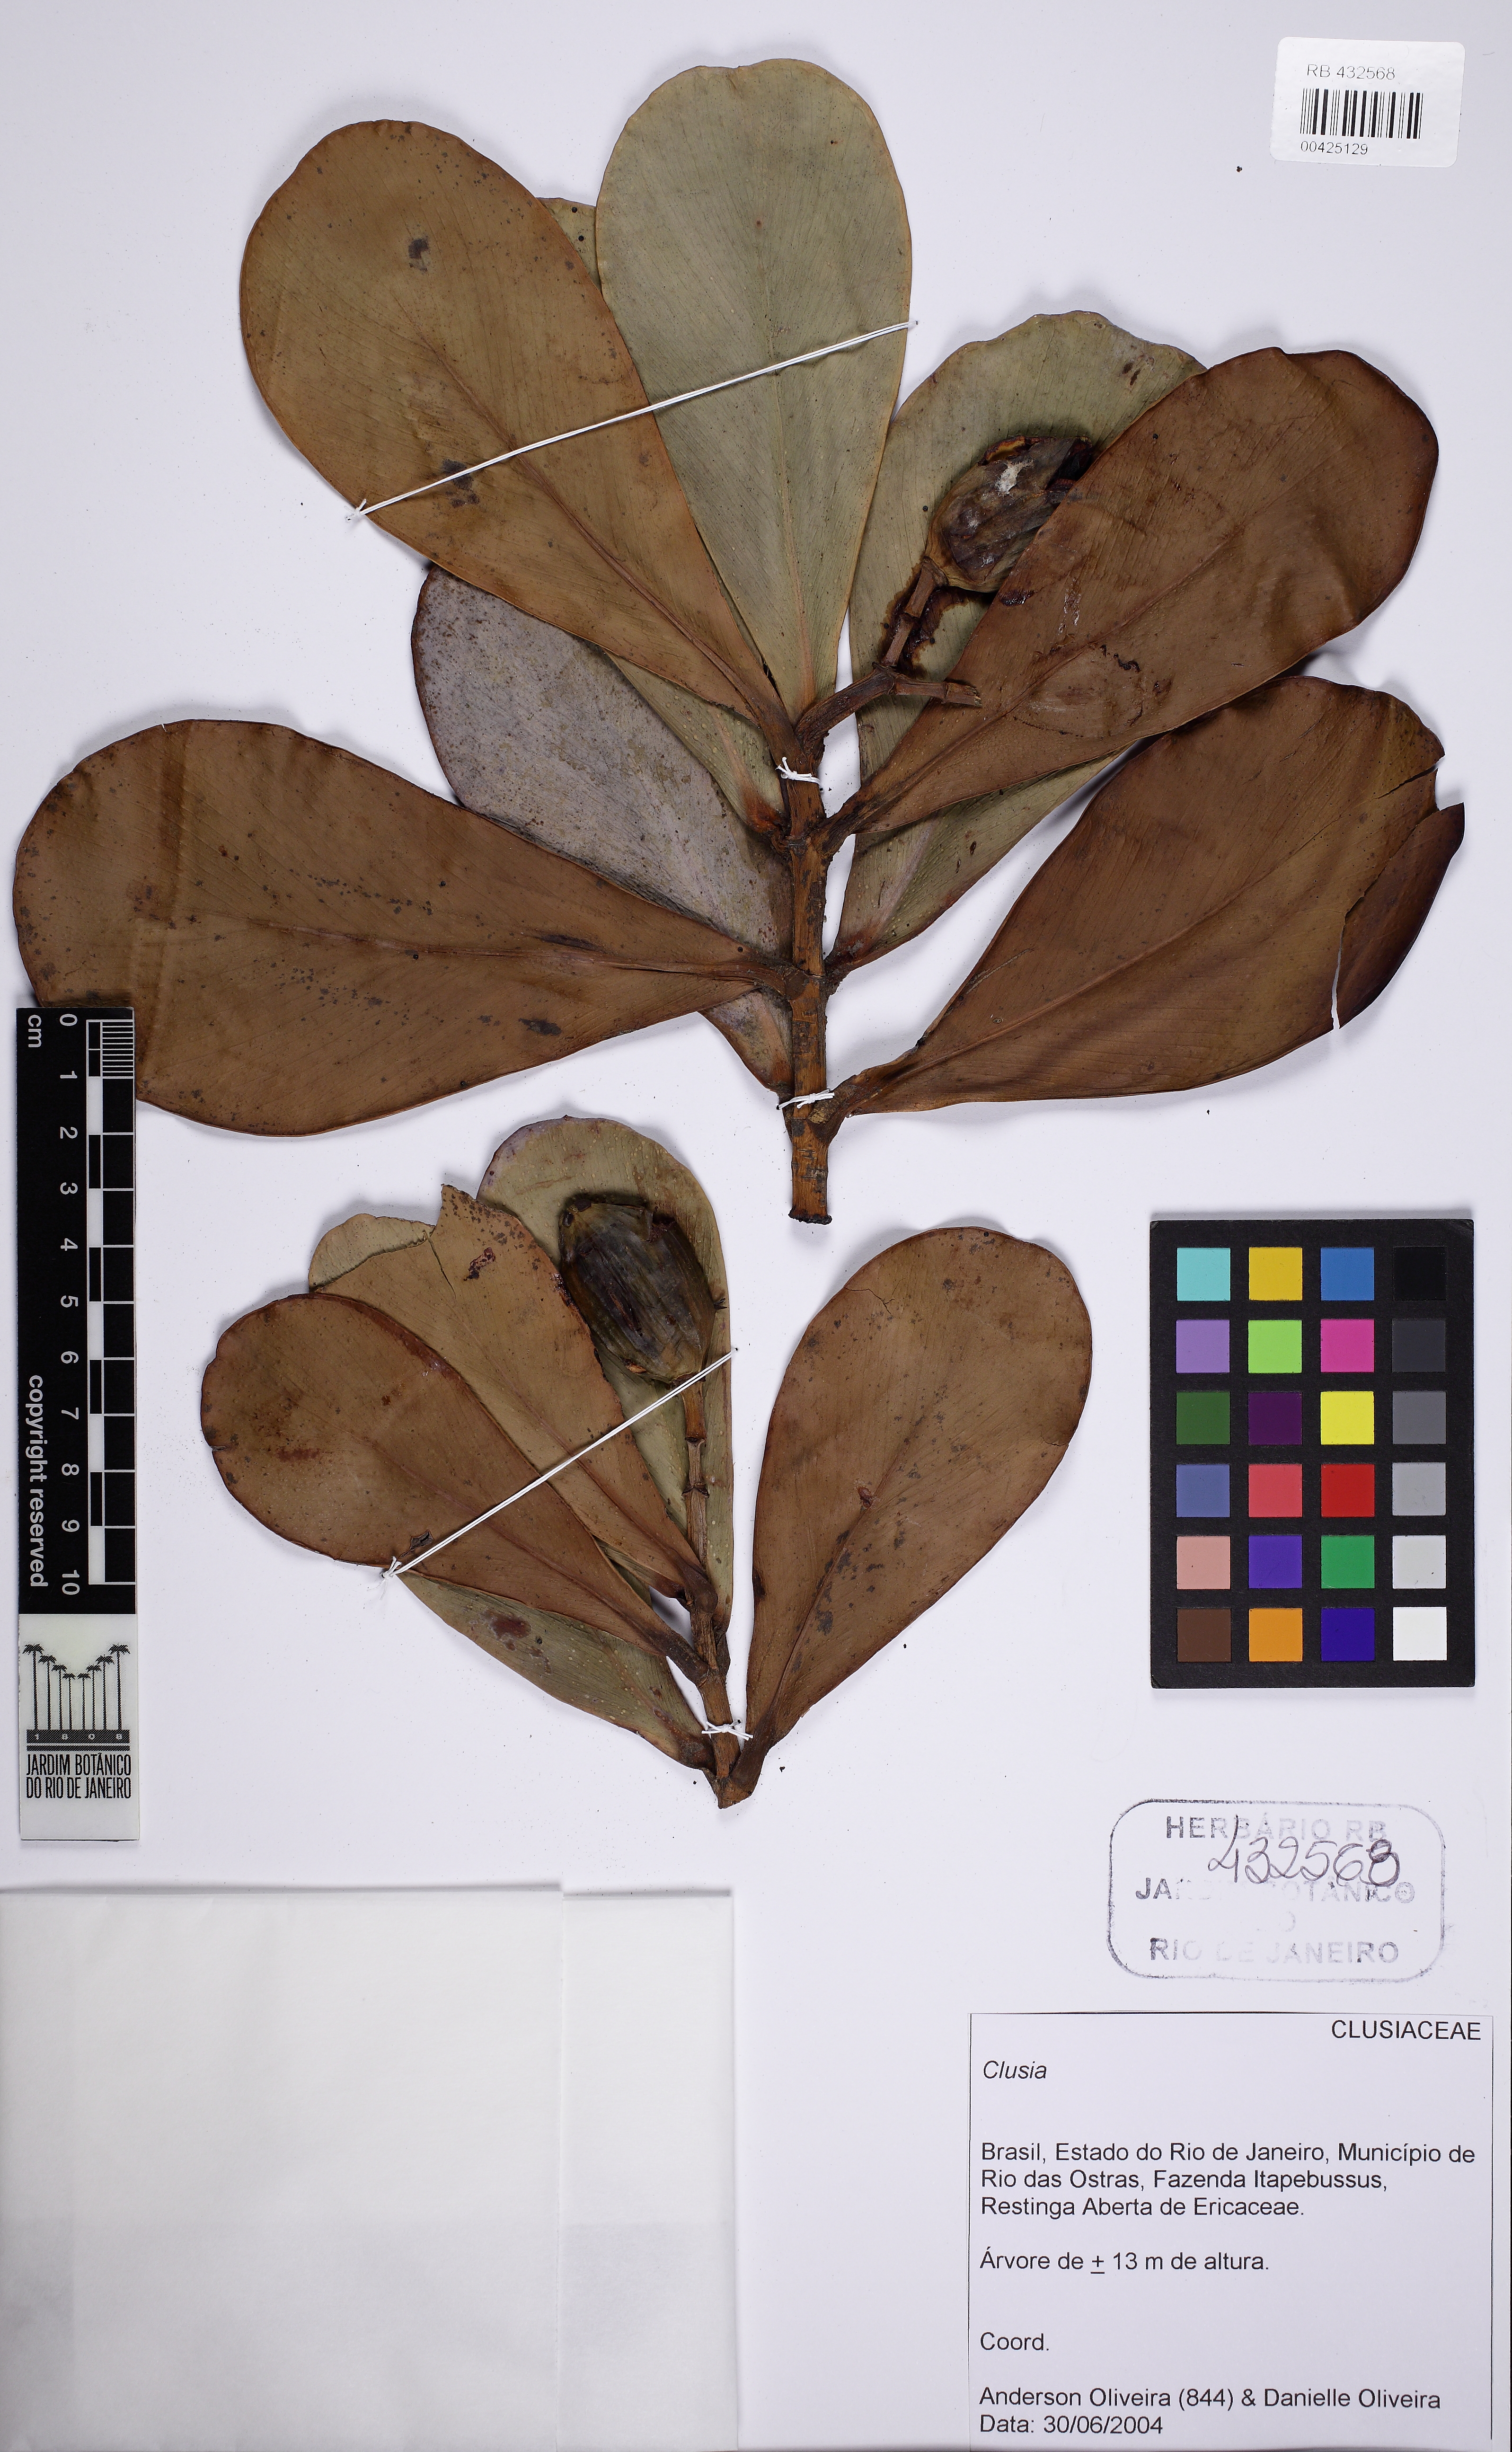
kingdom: Plantae
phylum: Tracheophyta
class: Magnoliopsida
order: Malpighiales
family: Clusiaceae
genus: Clusia
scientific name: Clusia fluminensis
